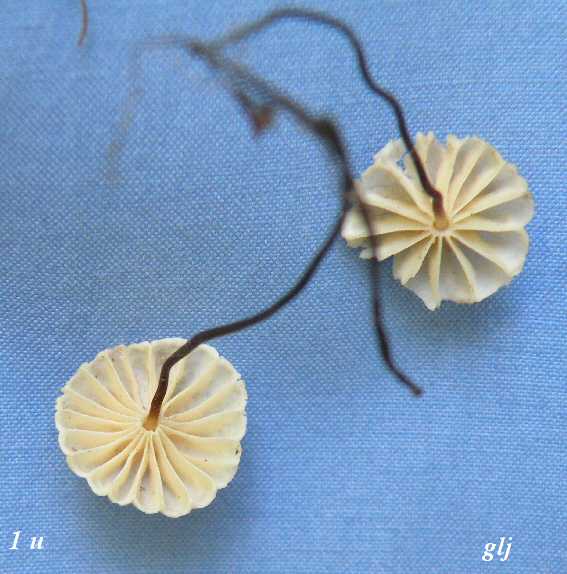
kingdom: Fungi
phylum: Basidiomycota
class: Agaricomycetes
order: Agaricales
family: Marasmiaceae
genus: Marasmius
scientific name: Marasmius rotula
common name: hjul-bruskhat
